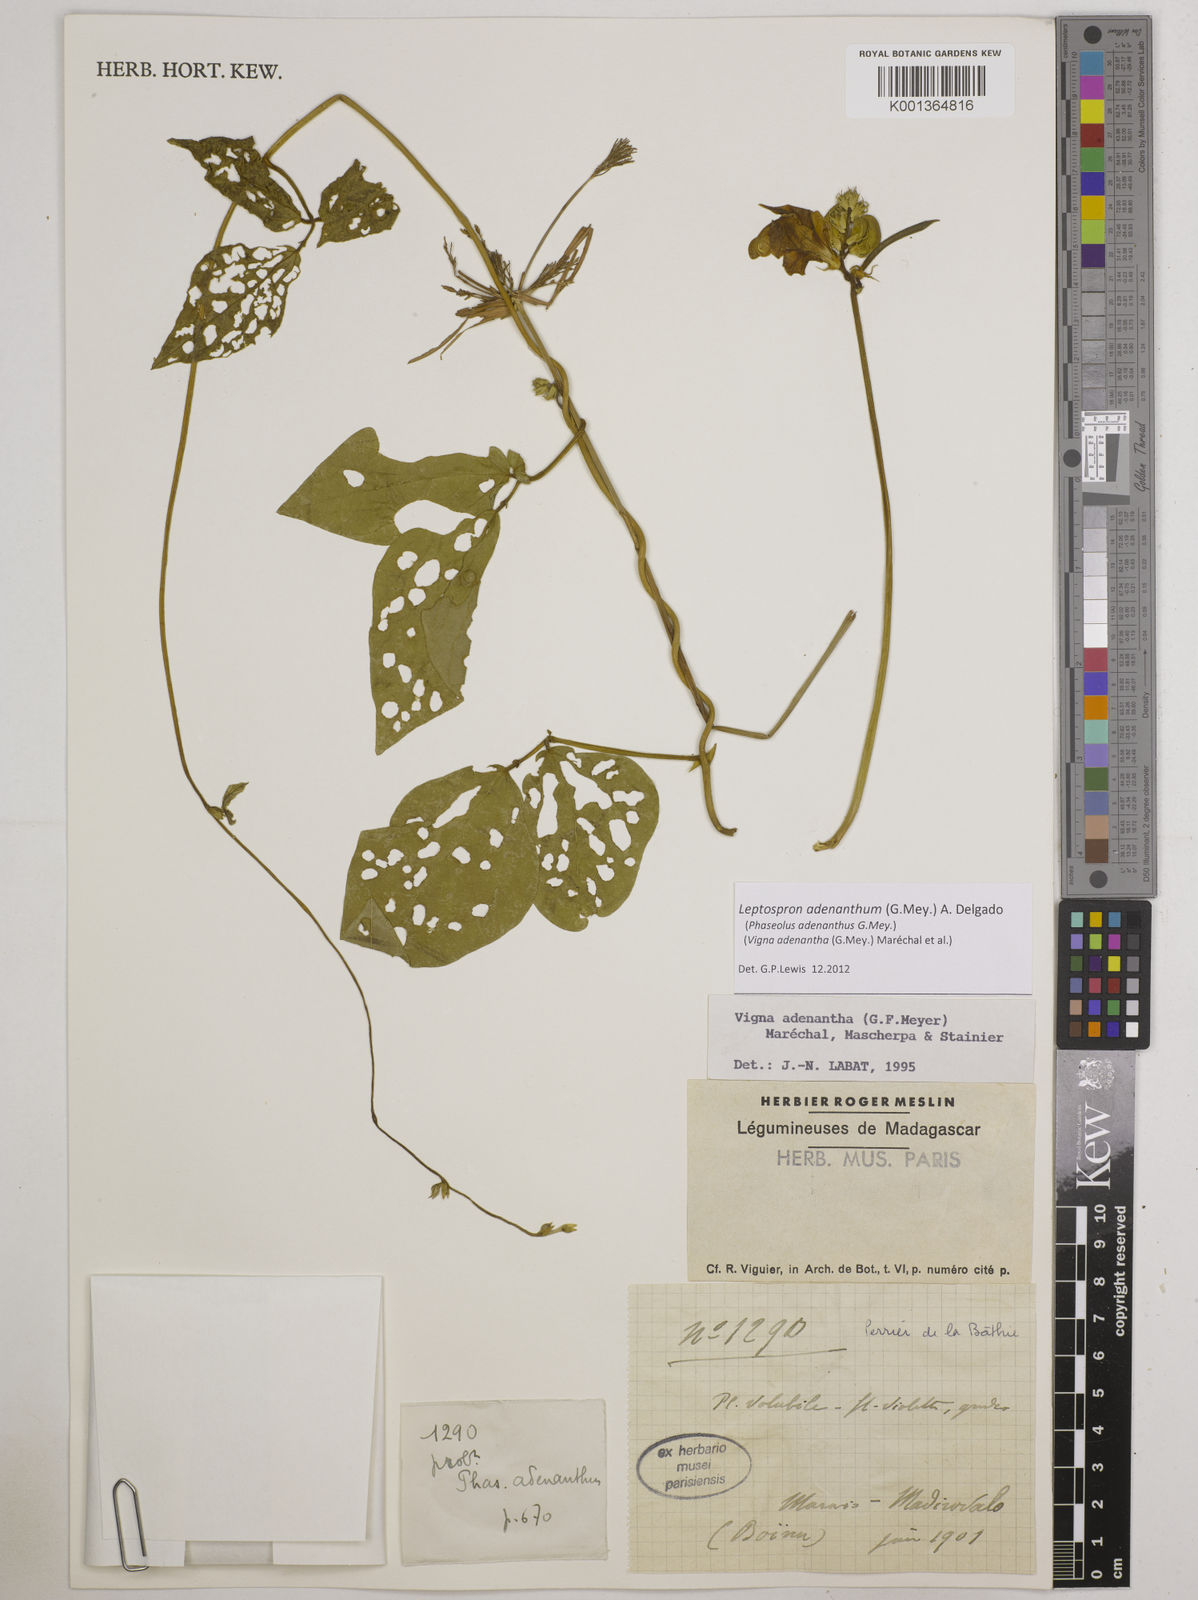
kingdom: Plantae
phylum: Tracheophyta
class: Magnoliopsida
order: Fabales
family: Fabaceae
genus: Leptospron
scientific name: Leptospron adenanthum
